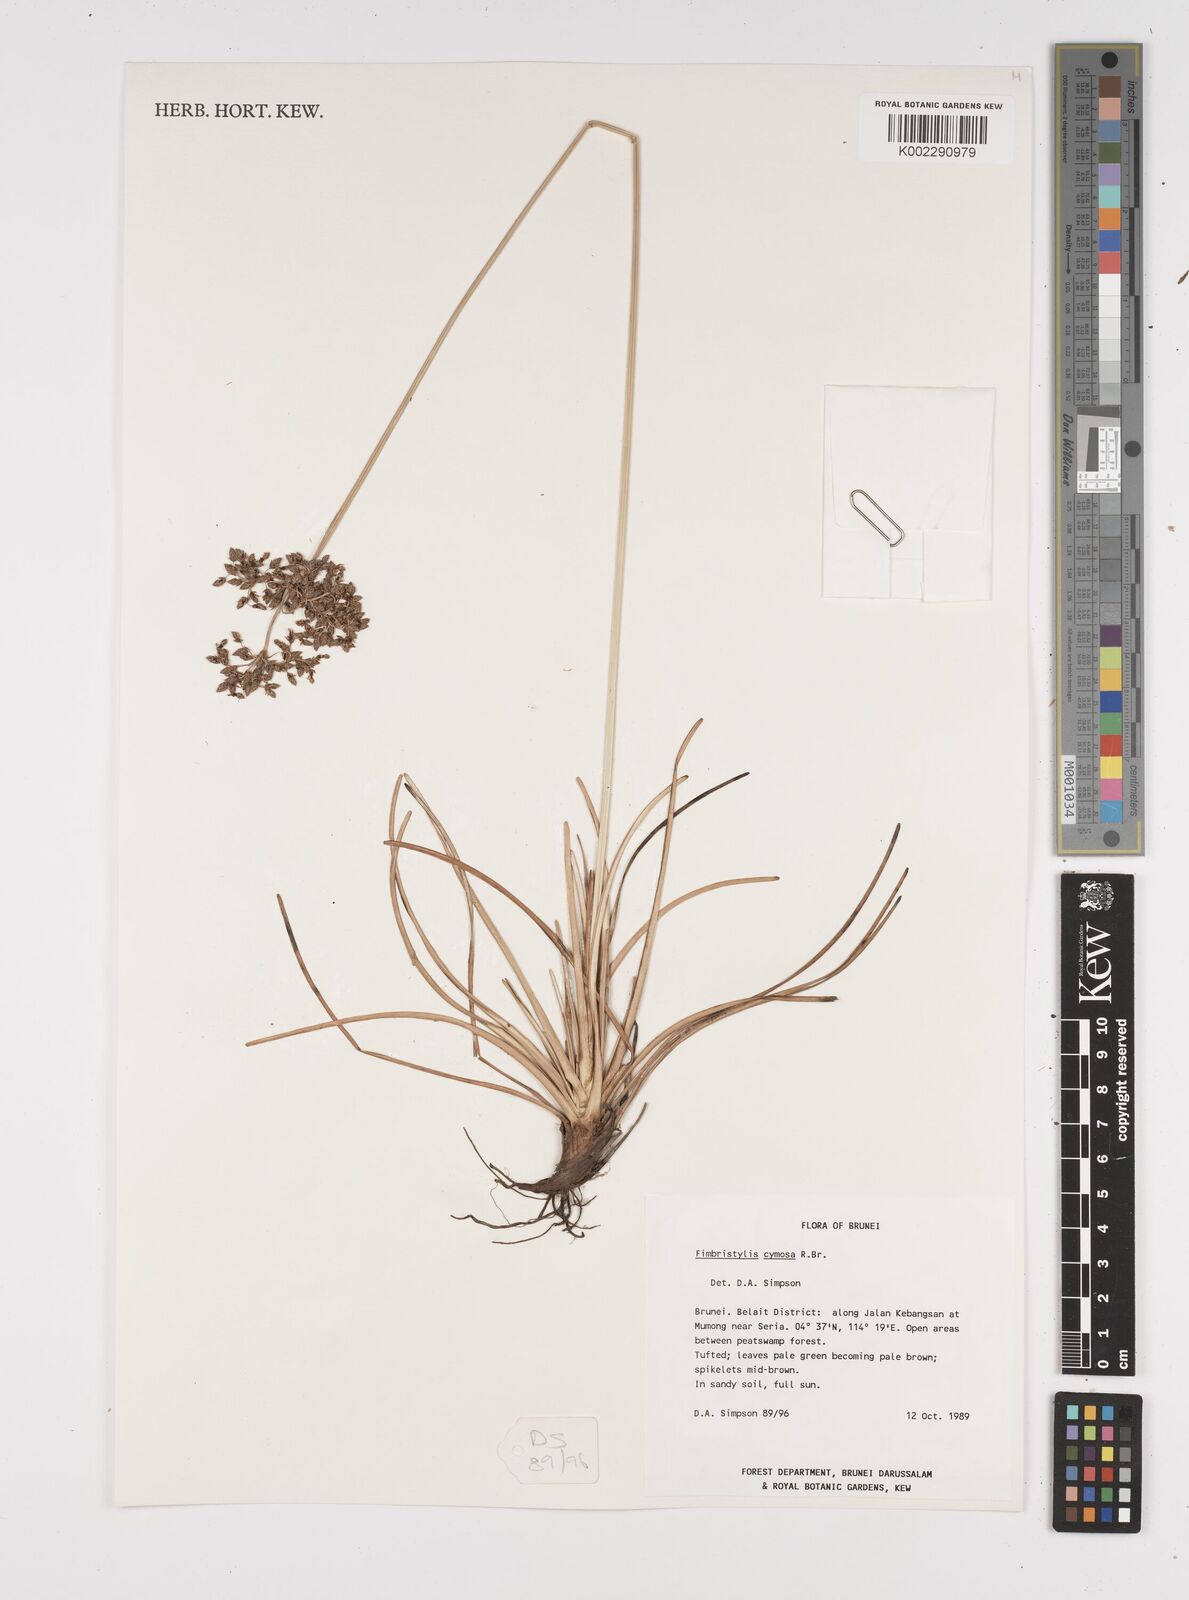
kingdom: Plantae
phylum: Tracheophyta
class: Liliopsida
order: Poales
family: Cyperaceae
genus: Fimbristylis
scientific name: Fimbristylis cymosa
